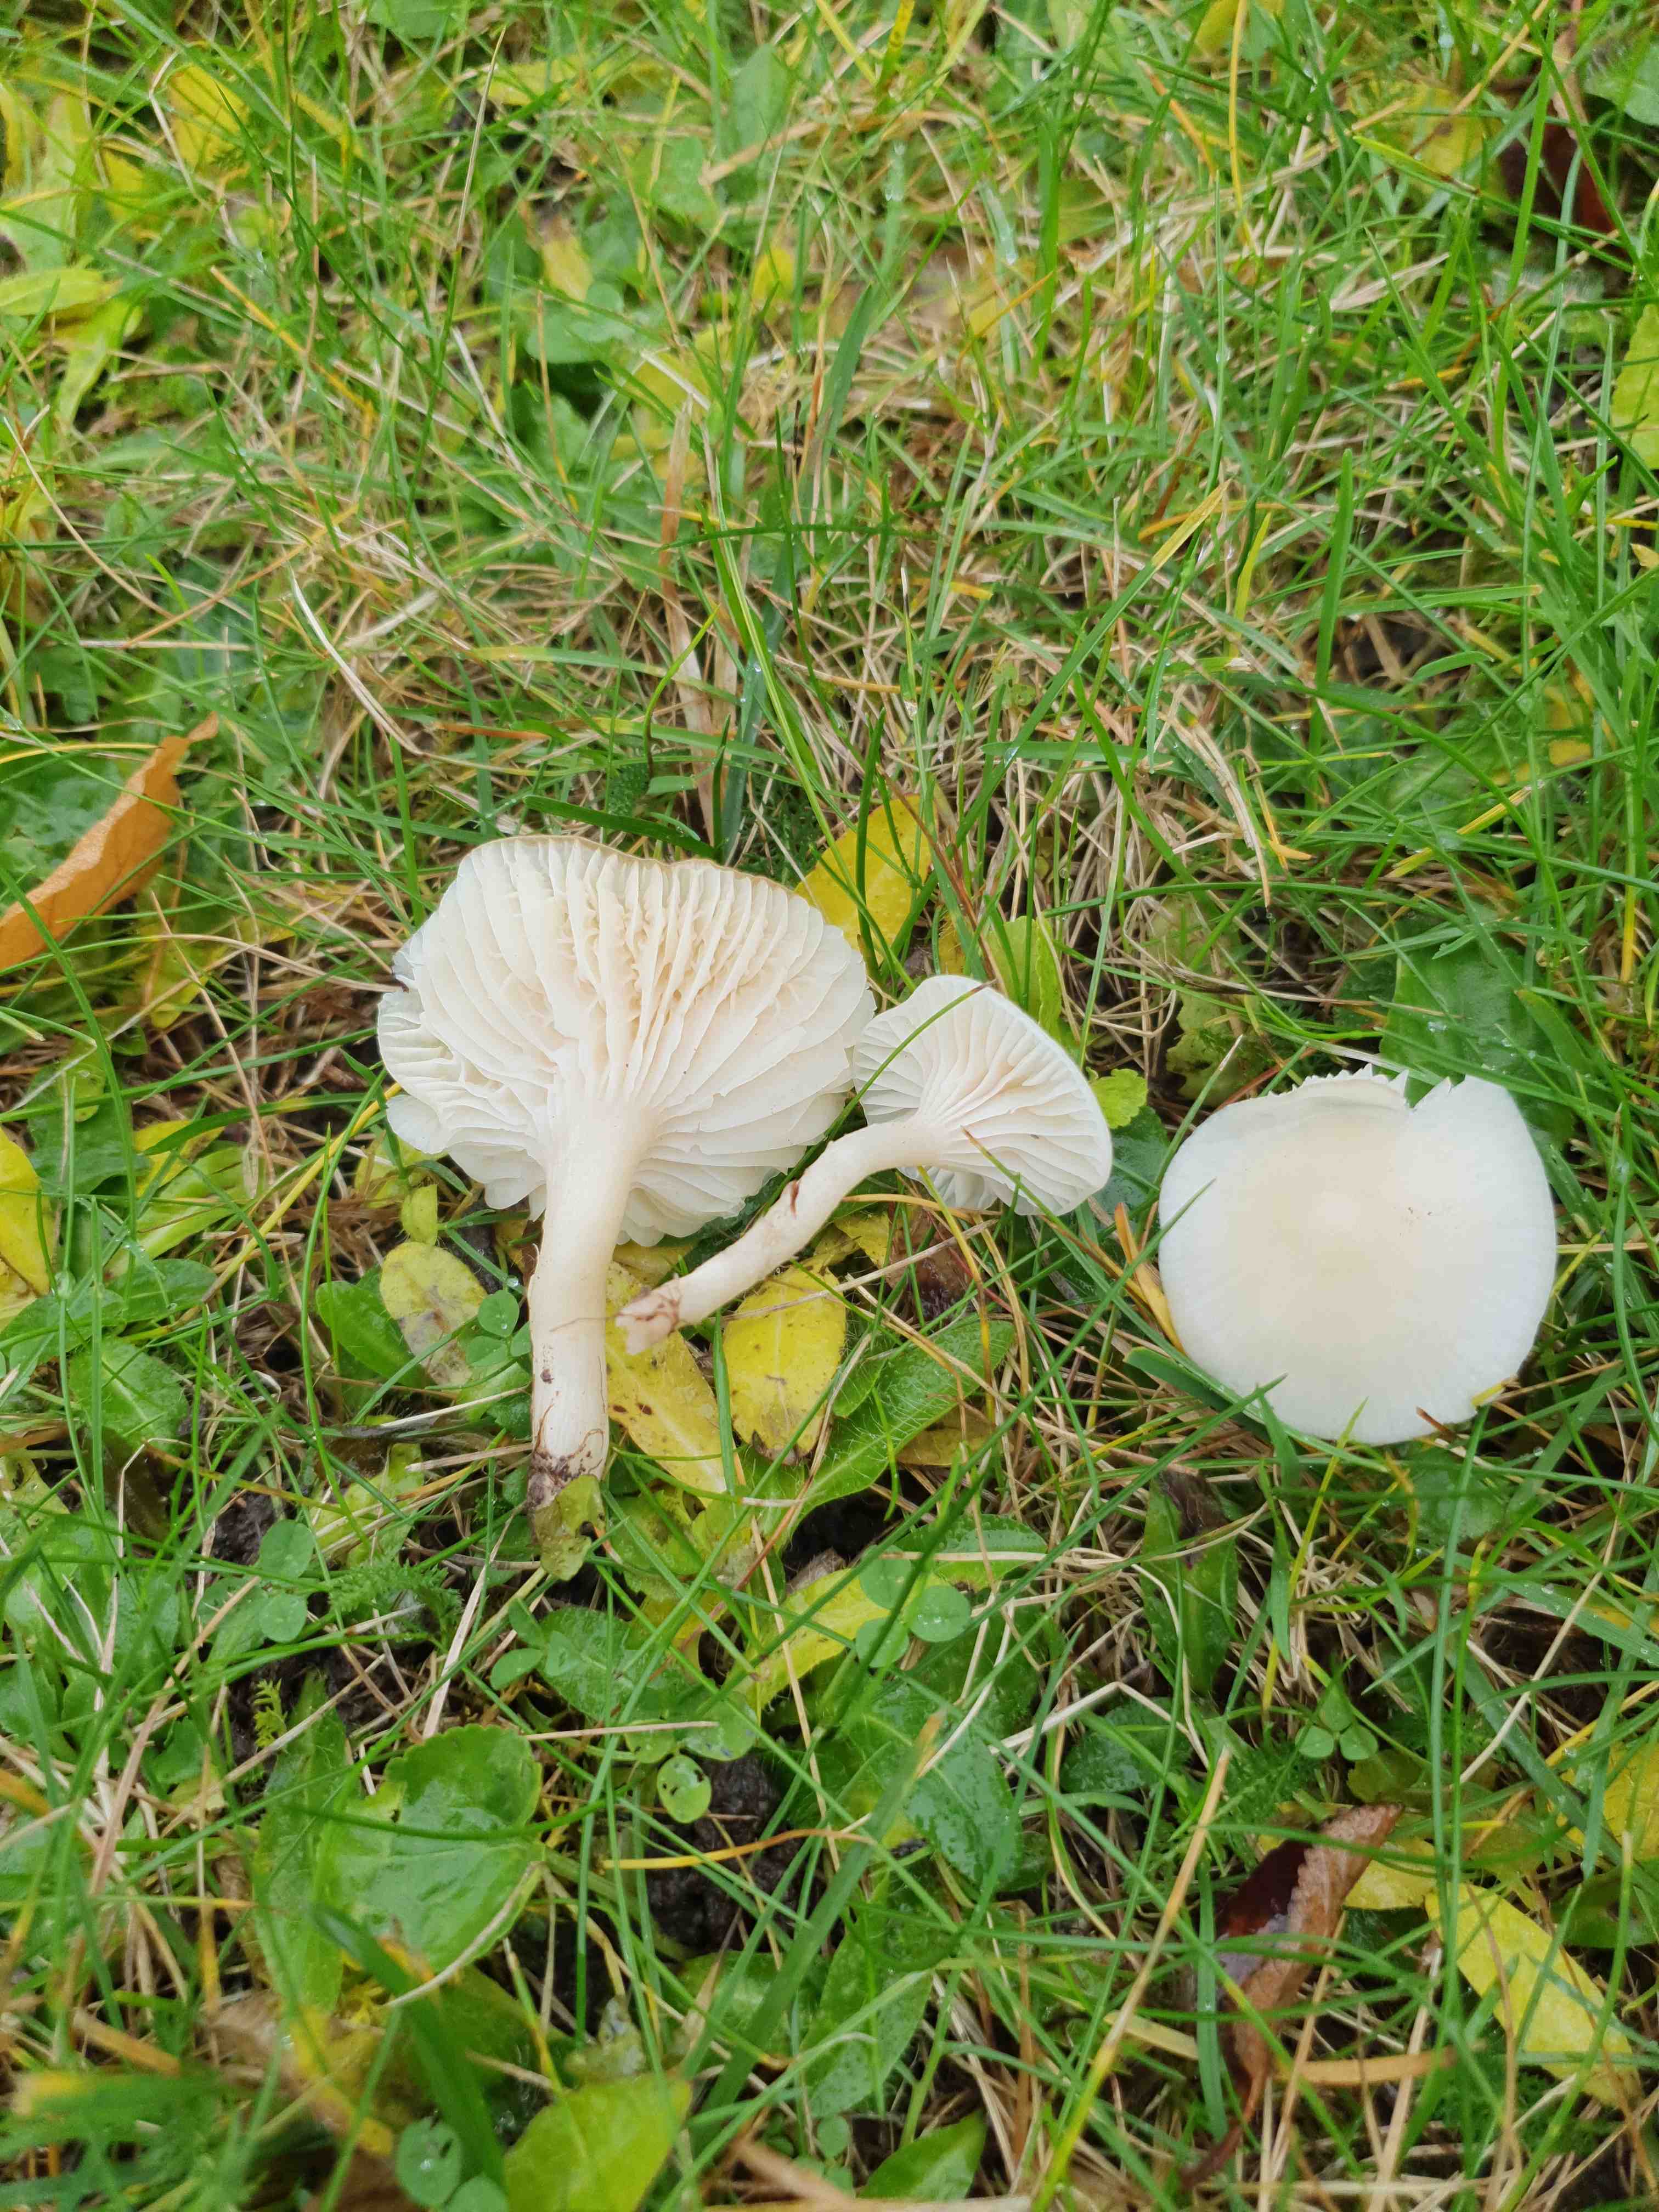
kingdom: Fungi
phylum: Basidiomycota
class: Agaricomycetes
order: Agaricales
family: Hygrophoraceae
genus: Cuphophyllus
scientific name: Cuphophyllus virgineus
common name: snehvid vokshat
